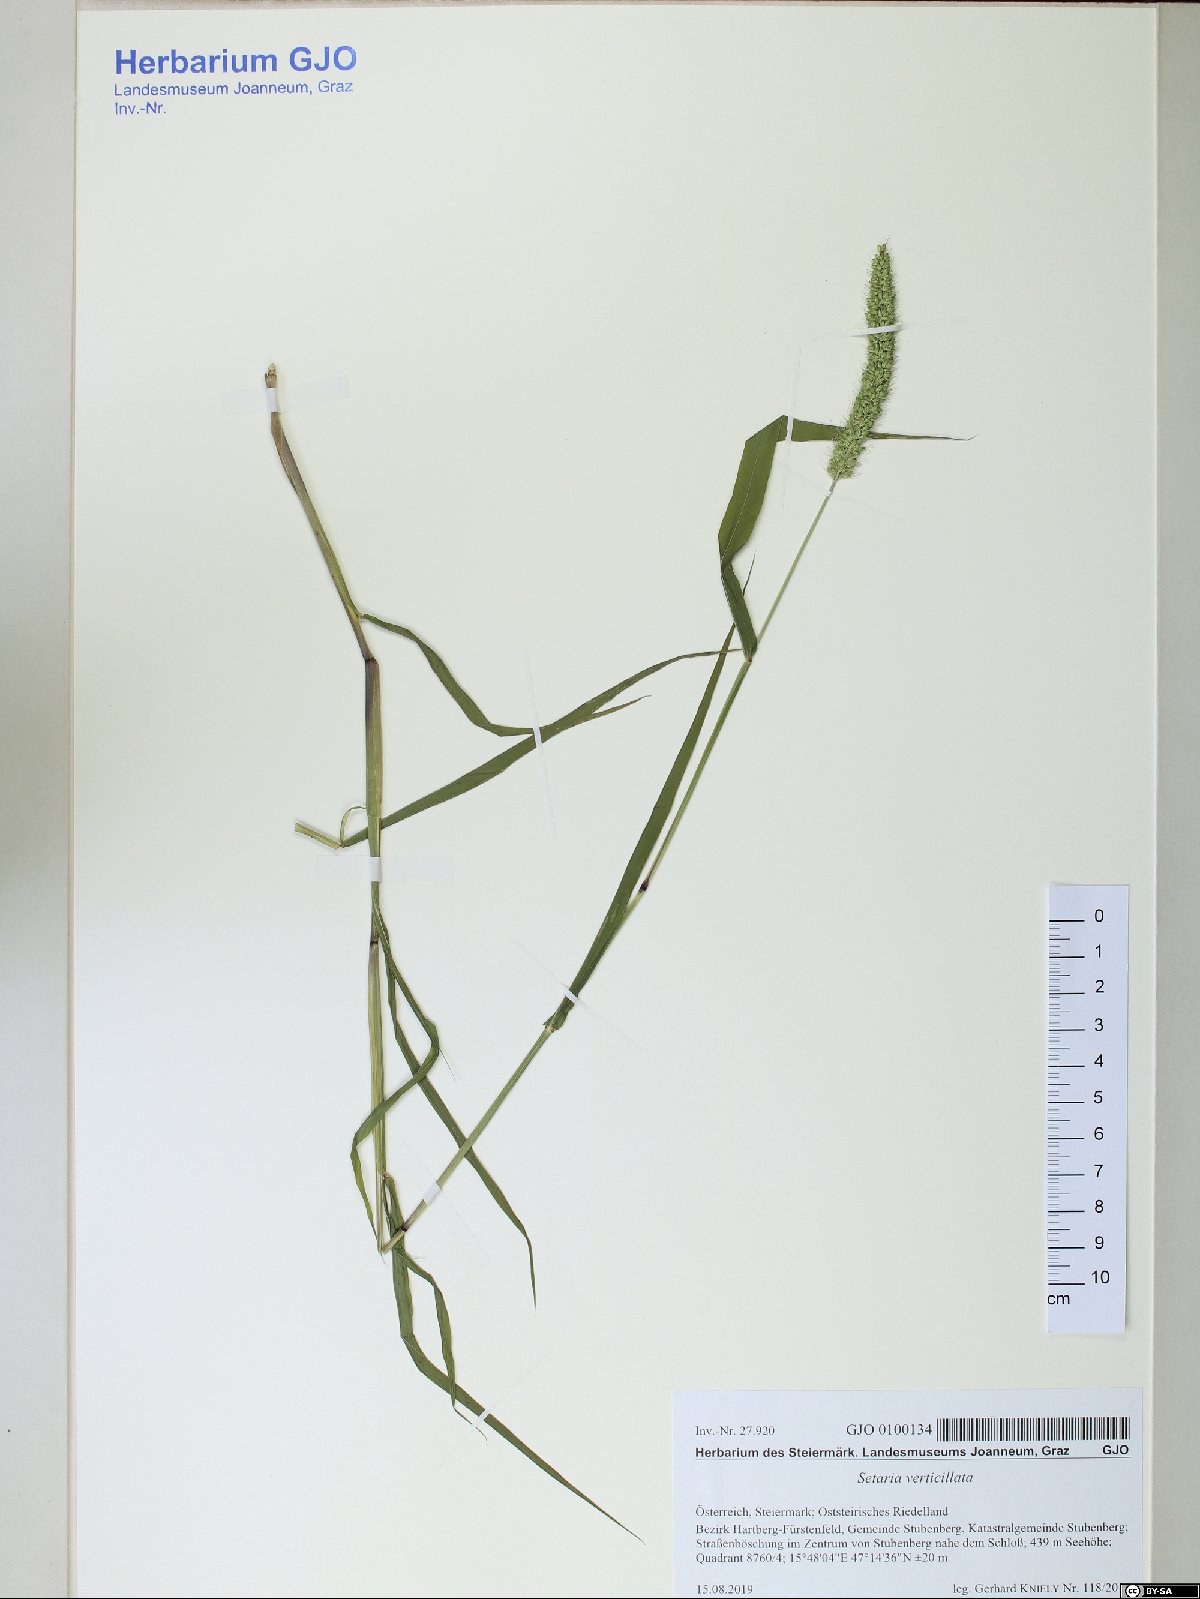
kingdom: Plantae
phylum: Tracheophyta
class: Liliopsida
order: Poales
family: Poaceae
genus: Setaria
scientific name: Setaria verticillata
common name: Hooked bristlegrass
